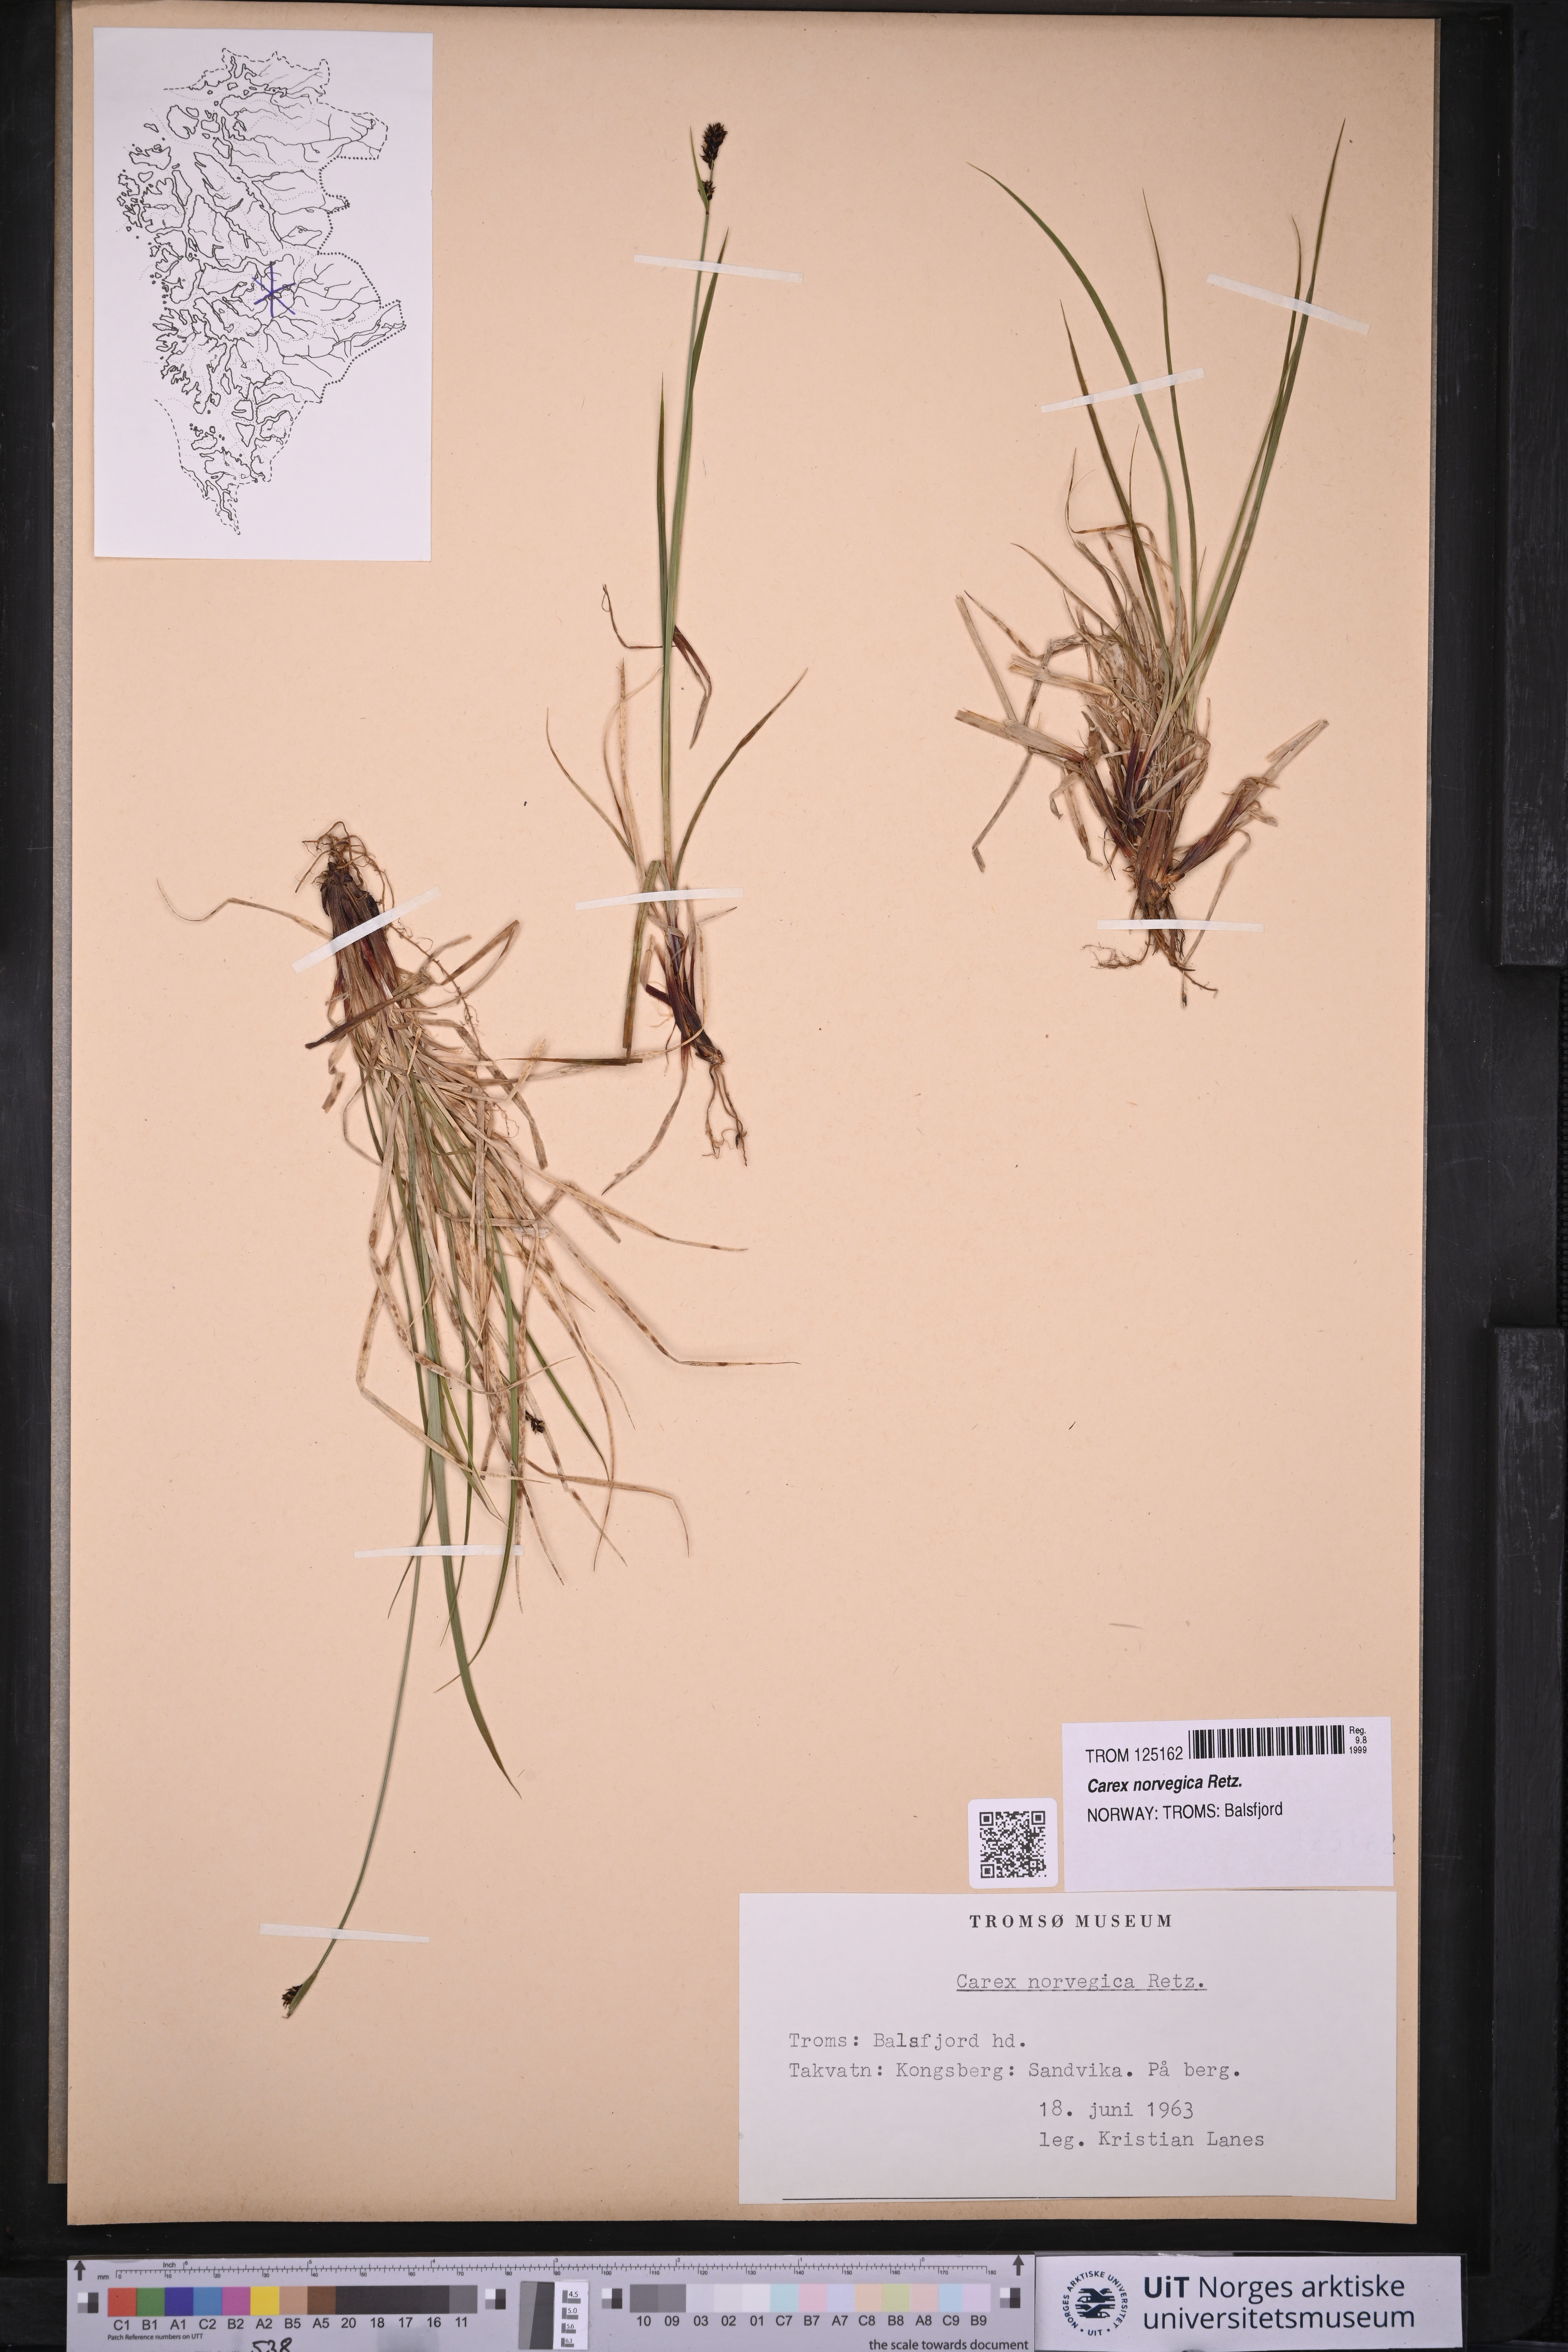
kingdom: Plantae
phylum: Tracheophyta
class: Liliopsida
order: Poales
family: Cyperaceae
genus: Carex
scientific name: Carex norvegica
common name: Close-headed alpine-sedge
